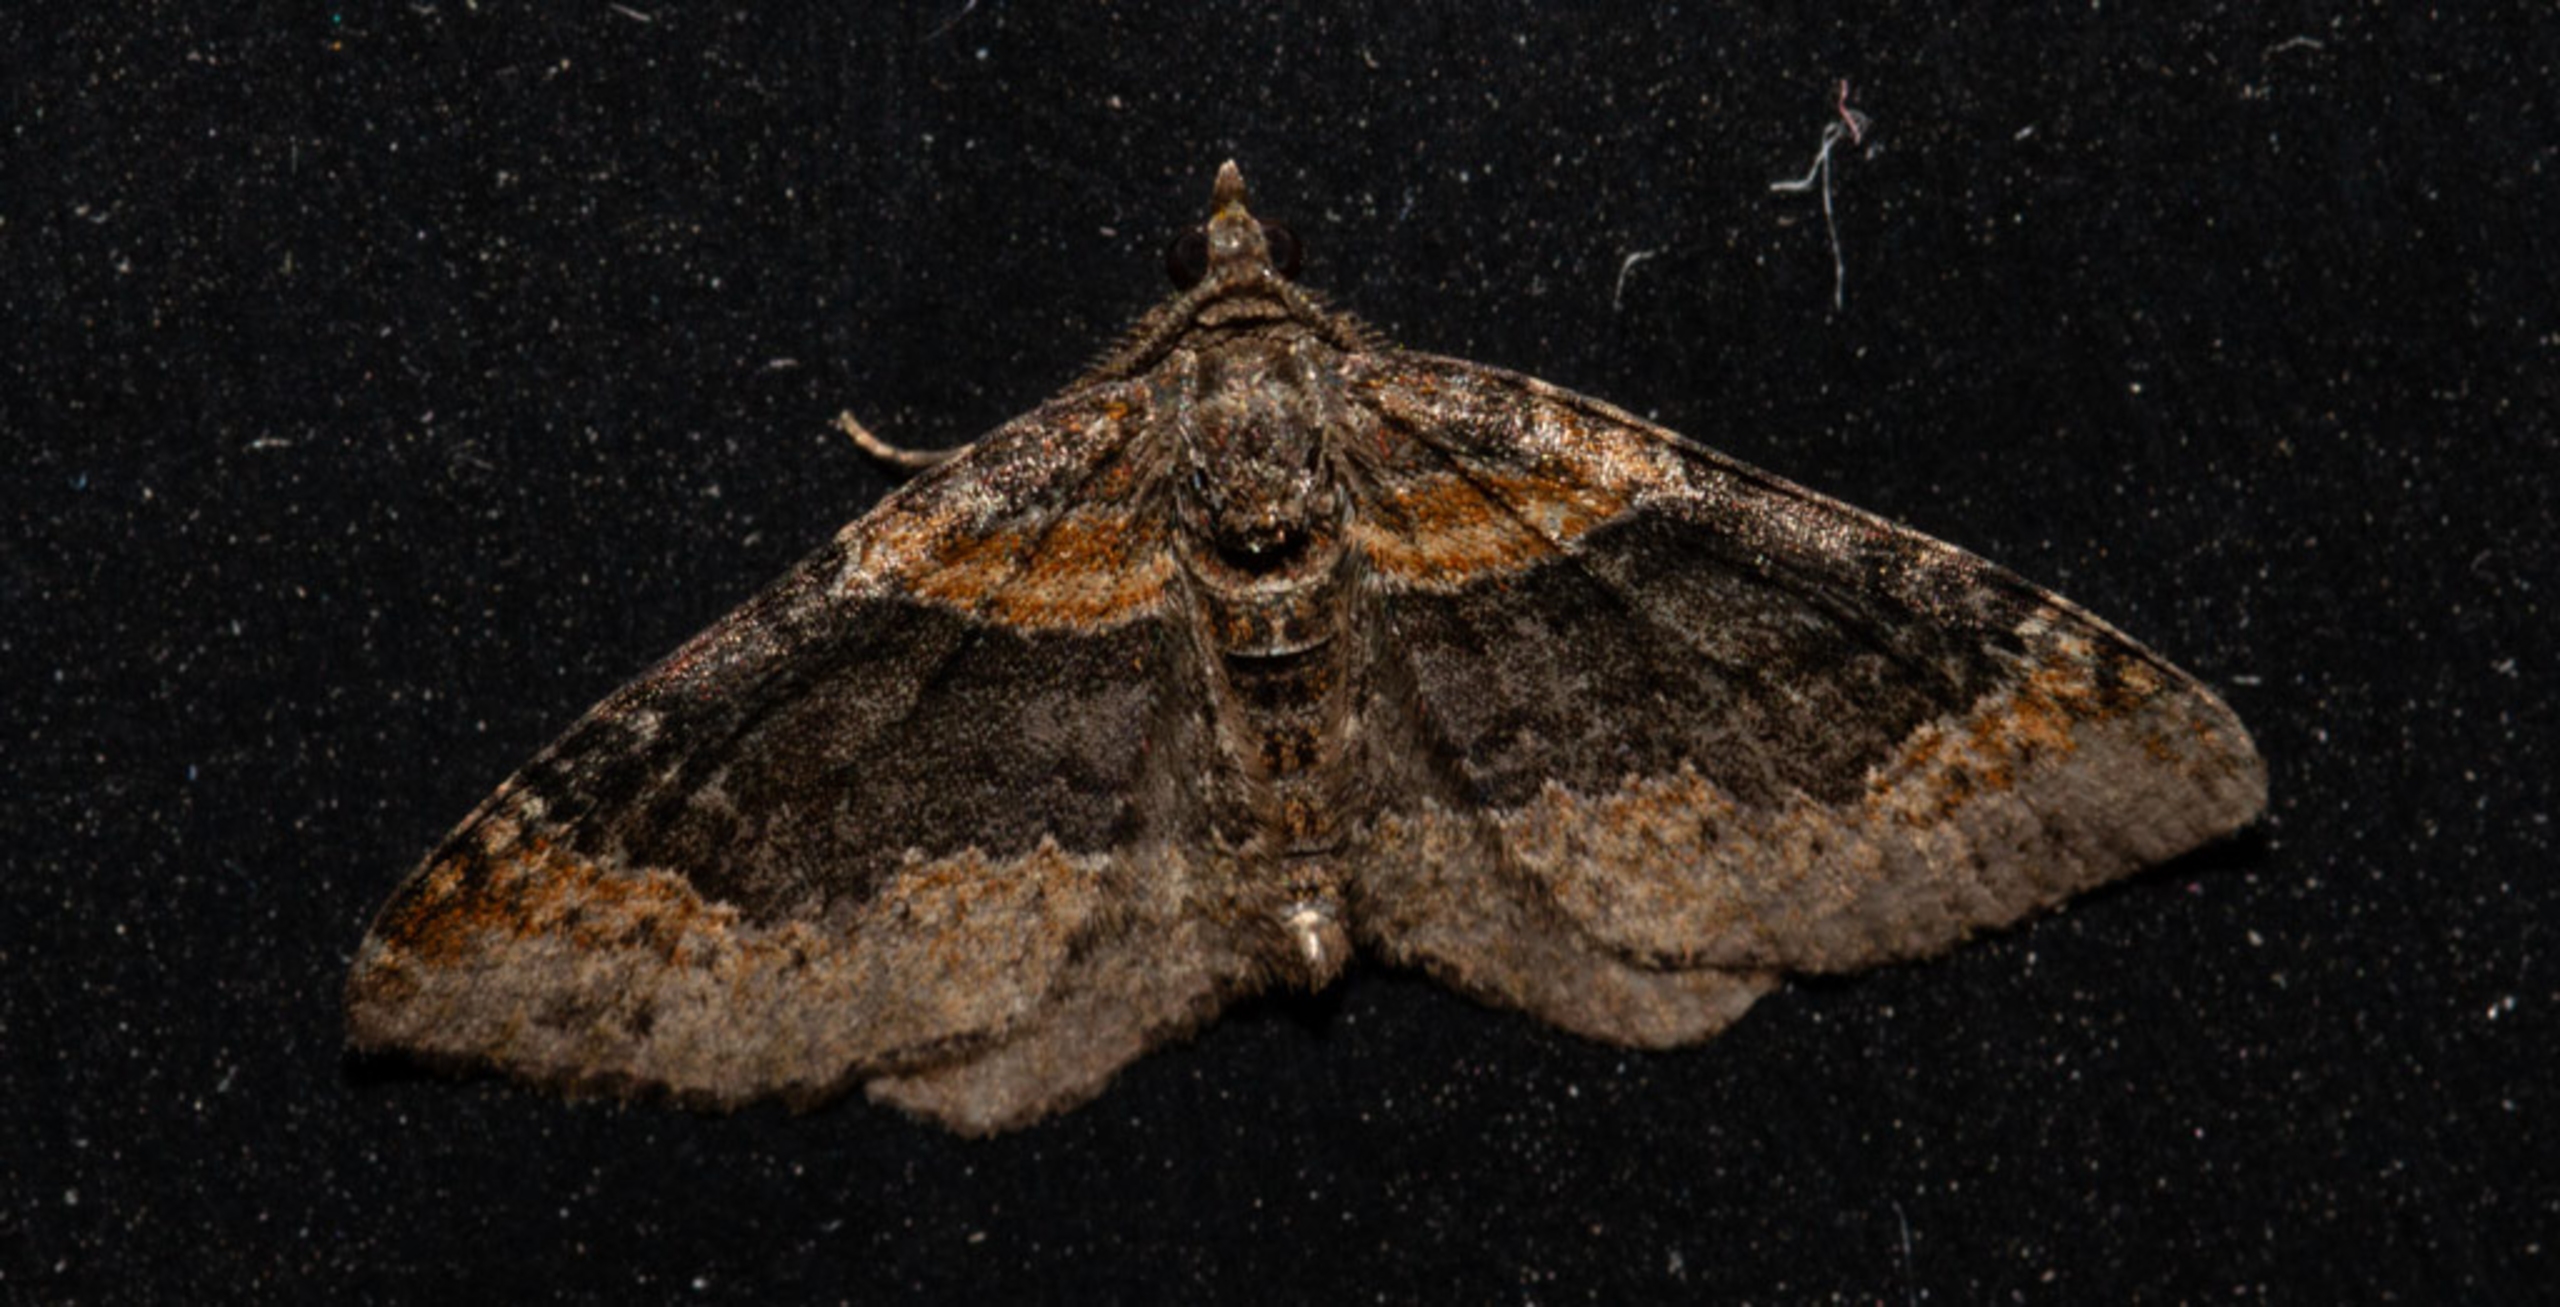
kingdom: Animalia
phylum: Arthropoda
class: Insecta
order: Lepidoptera
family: Geometridae
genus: Xanthorhoe
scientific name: Xanthorhoe ferrugata
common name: Rustbladmåler
